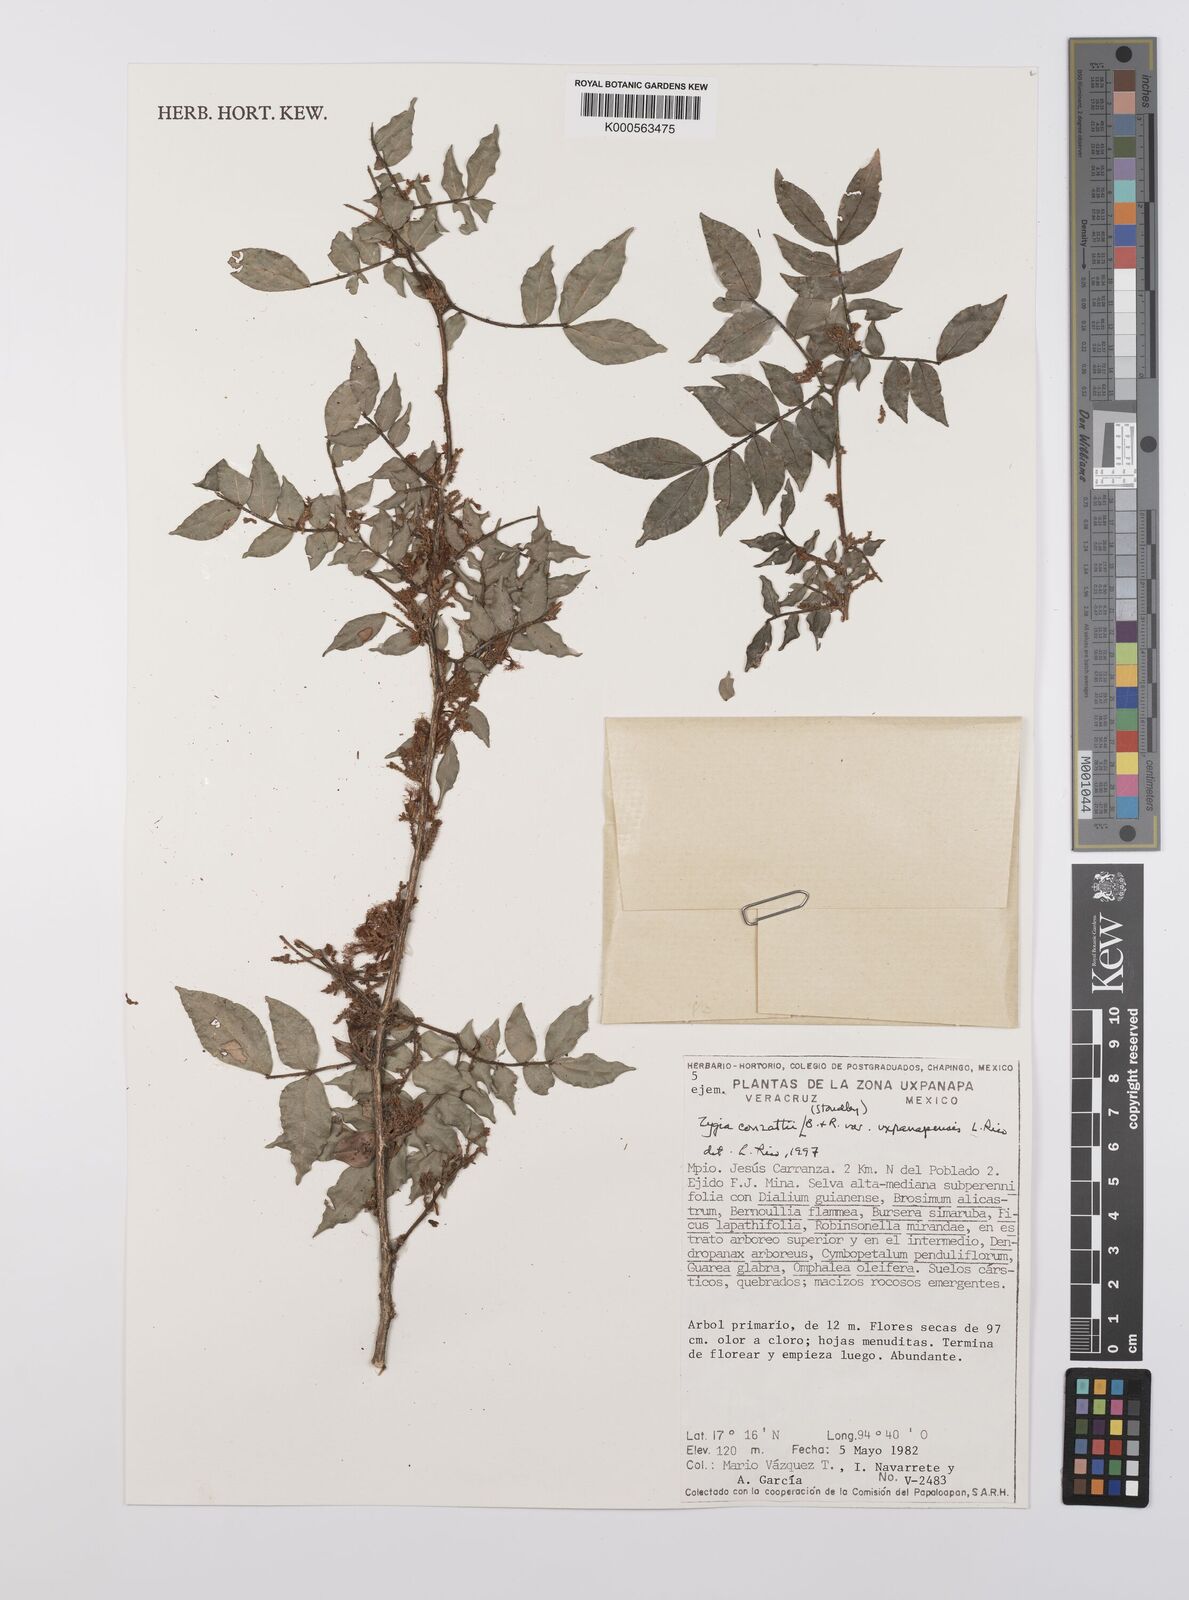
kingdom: Plantae
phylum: Tracheophyta
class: Magnoliopsida
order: Fabales
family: Fabaceae
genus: Zygia
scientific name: Zygia conzattii
